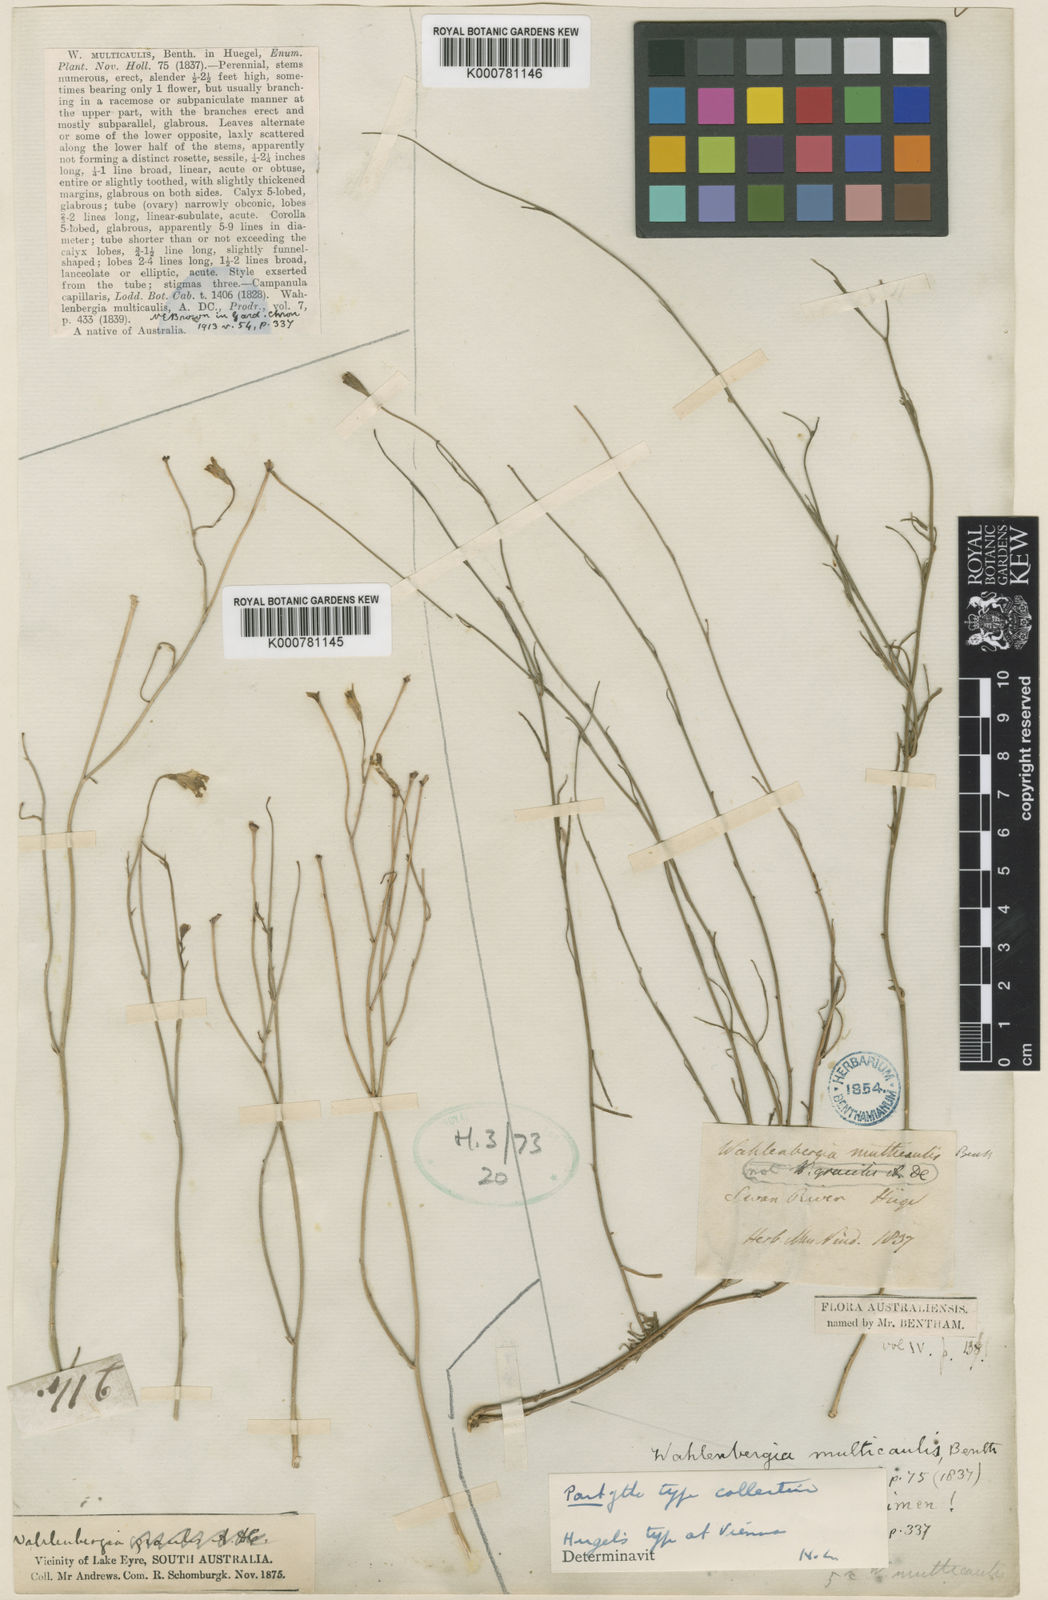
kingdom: Plantae
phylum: Tracheophyta
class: Magnoliopsida
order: Asterales
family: Campanulaceae
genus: Wahlenbergia
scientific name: Wahlenbergia multicaulis
